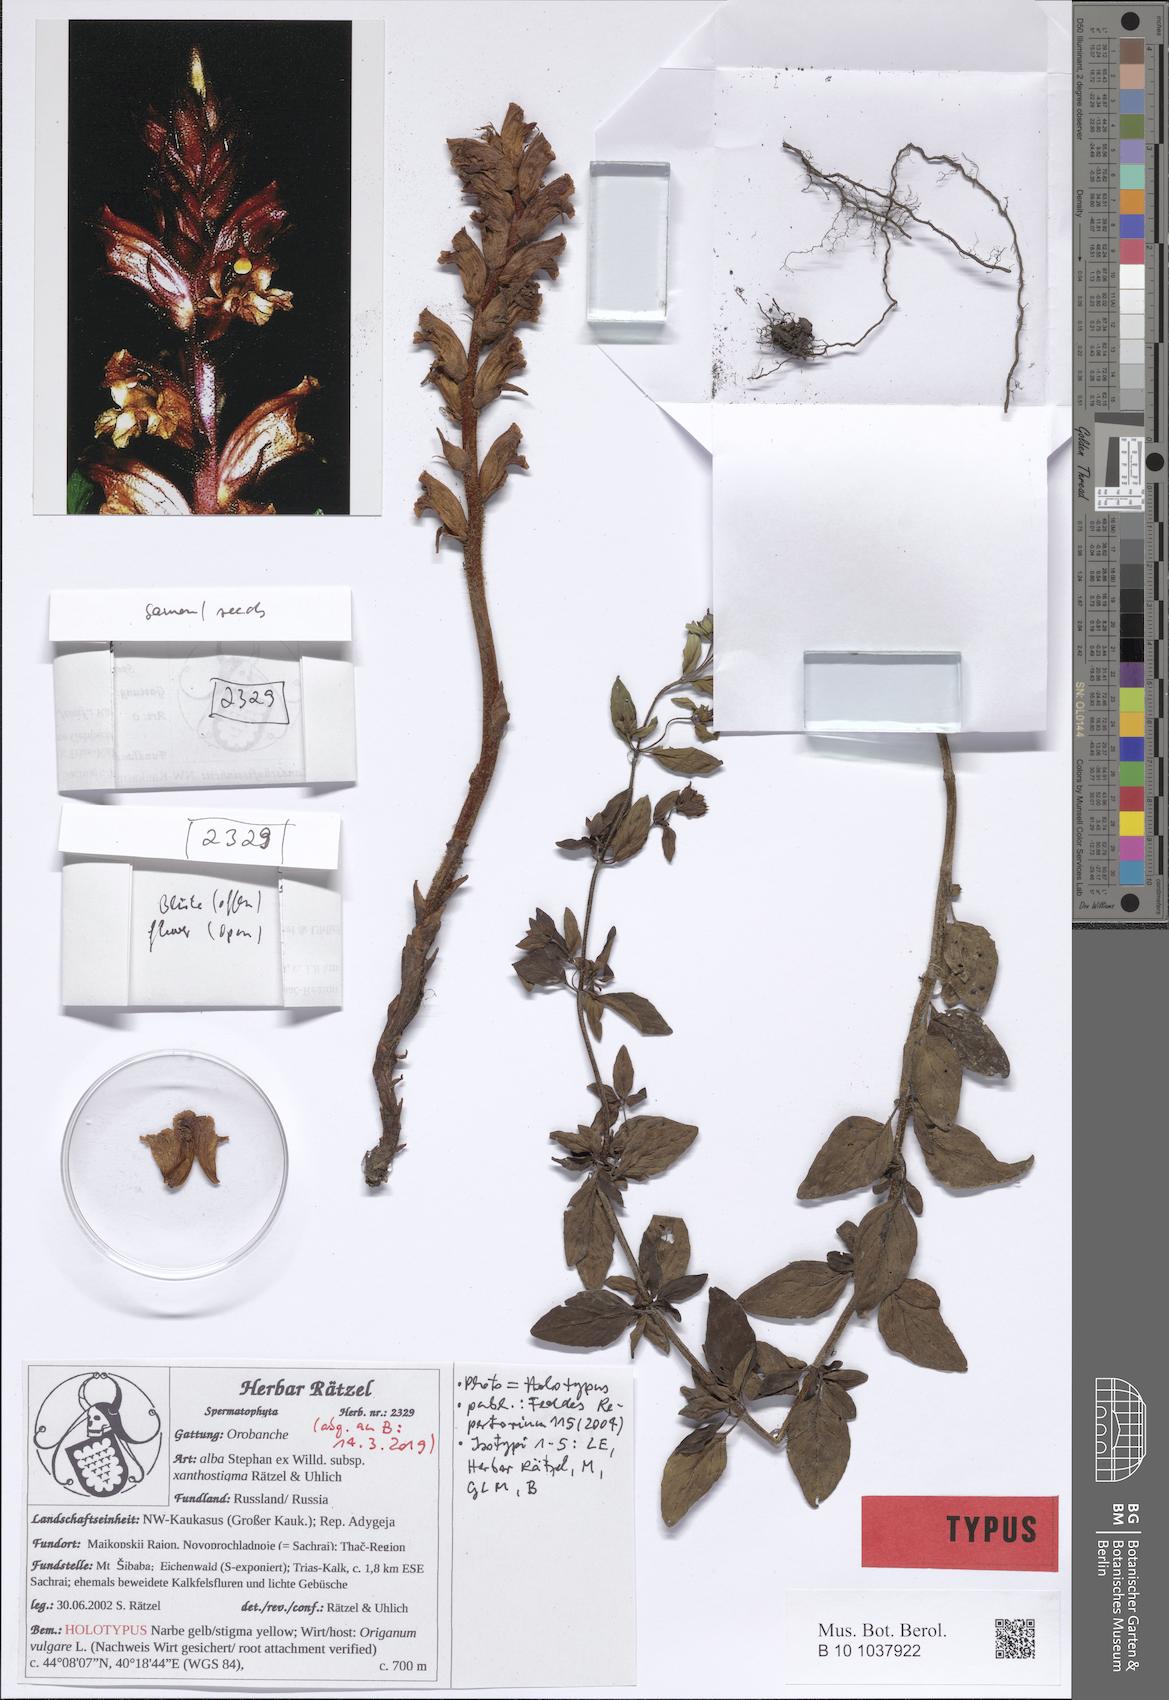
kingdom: Plantae
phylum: Tracheophyta
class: Magnoliopsida
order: Lamiales
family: Orobanchaceae
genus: Orobanche
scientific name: Orobanche alba
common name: Thyme broomrape
